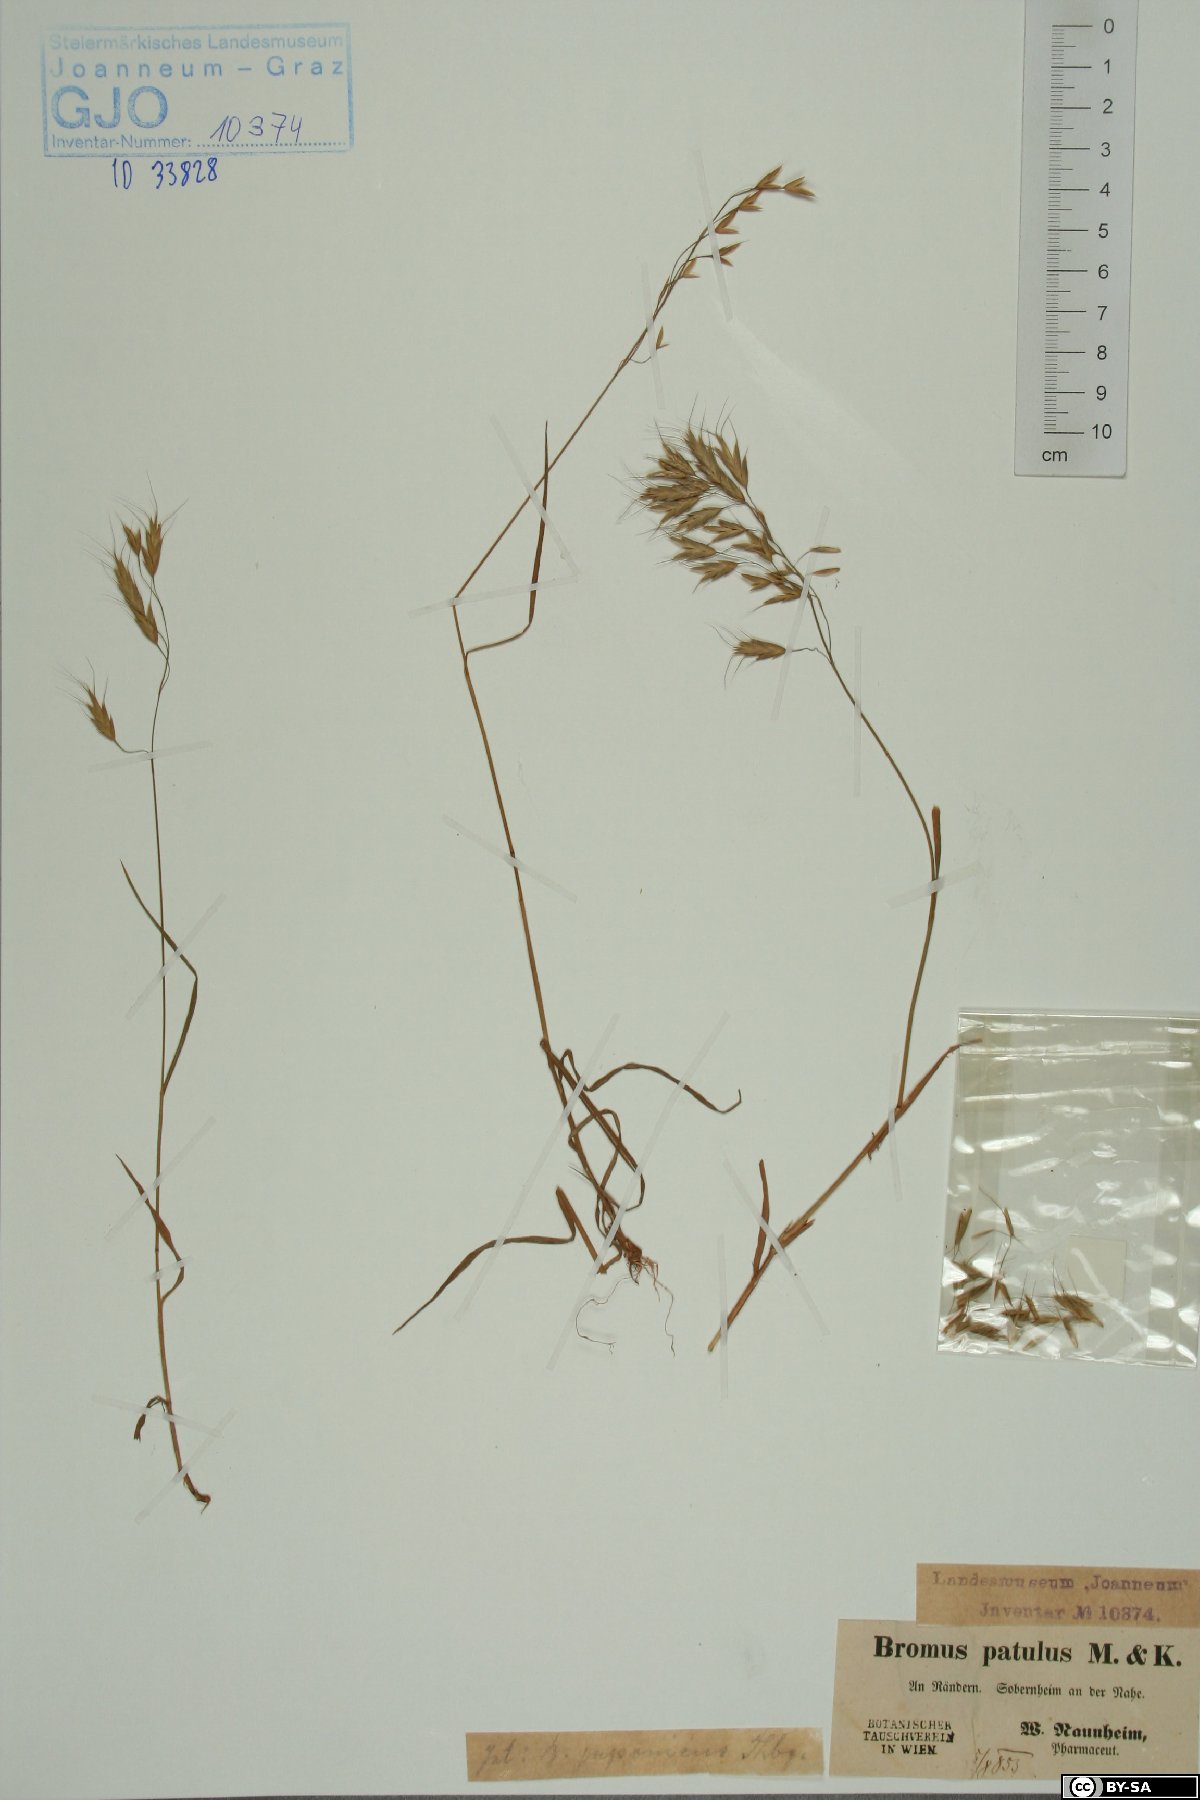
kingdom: Plantae
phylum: Tracheophyta
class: Liliopsida
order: Poales
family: Poaceae
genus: Bromus
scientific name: Bromus japonicus
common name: Japanese brome
